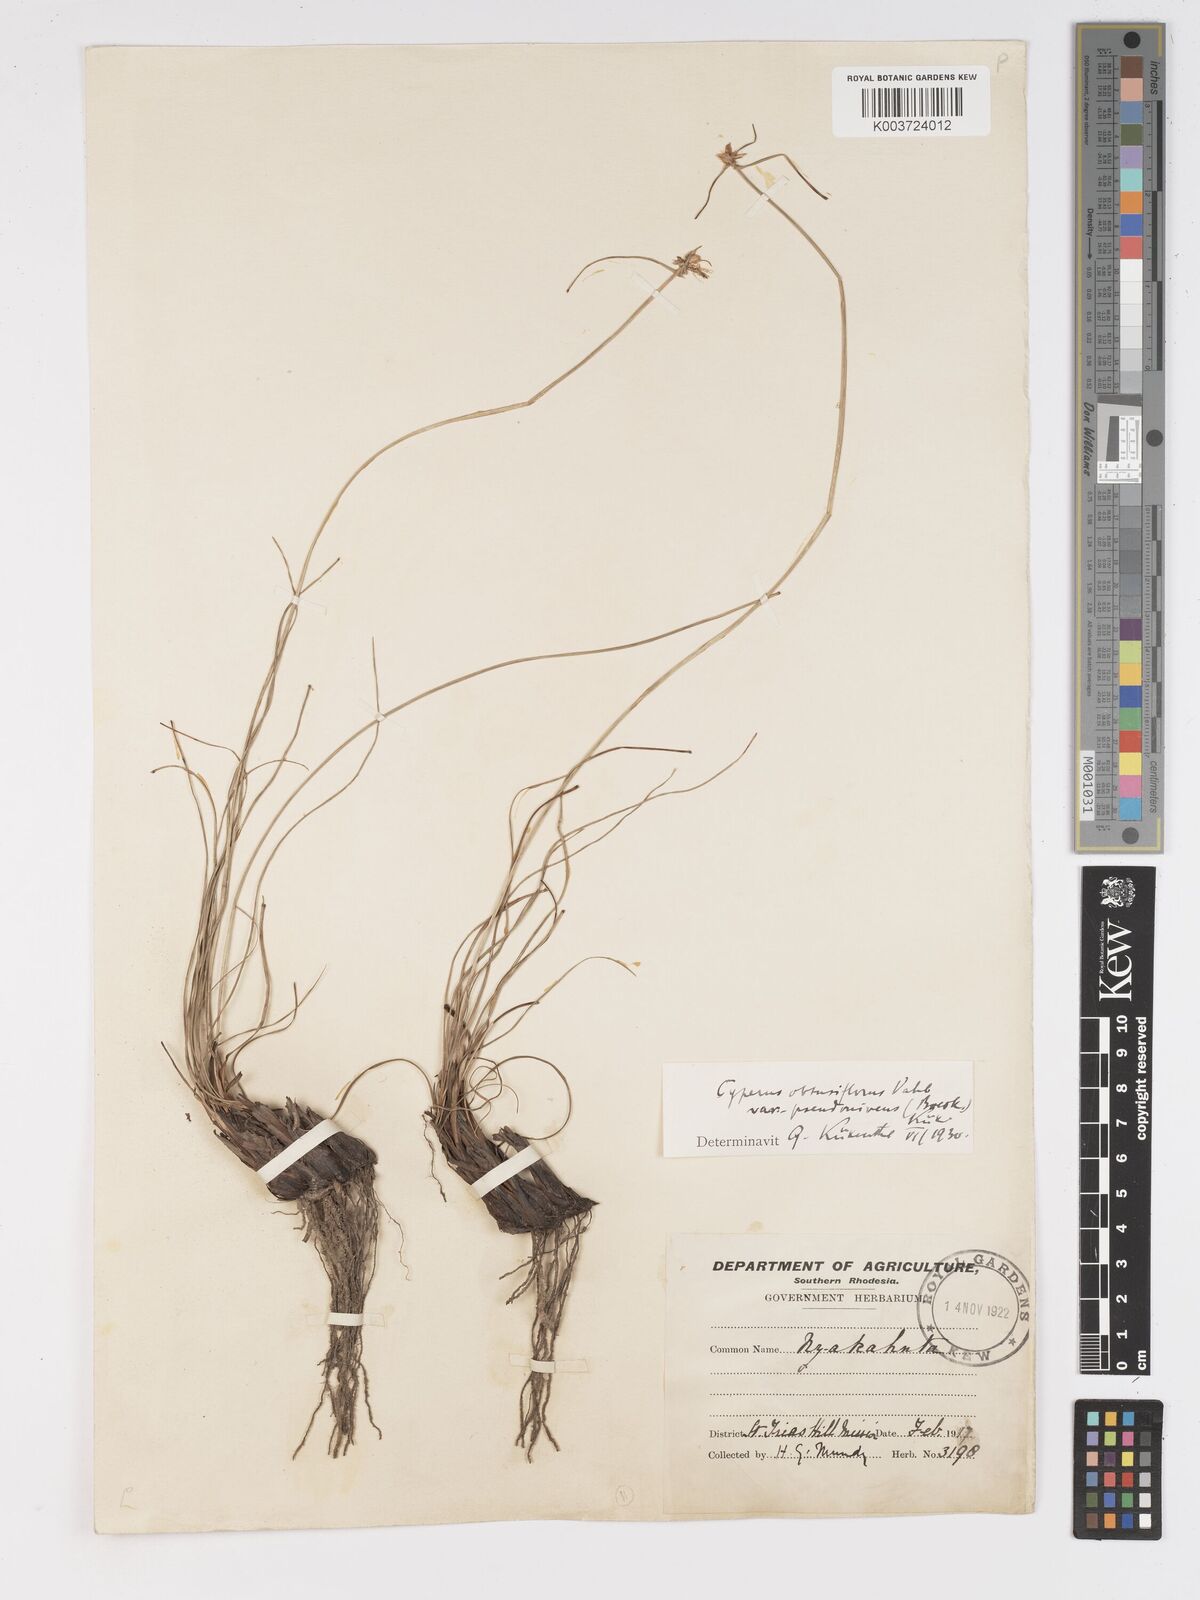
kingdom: Plantae
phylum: Tracheophyta
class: Liliopsida
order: Poales
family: Cyperaceae
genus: Cyperus
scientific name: Cyperus niveus
